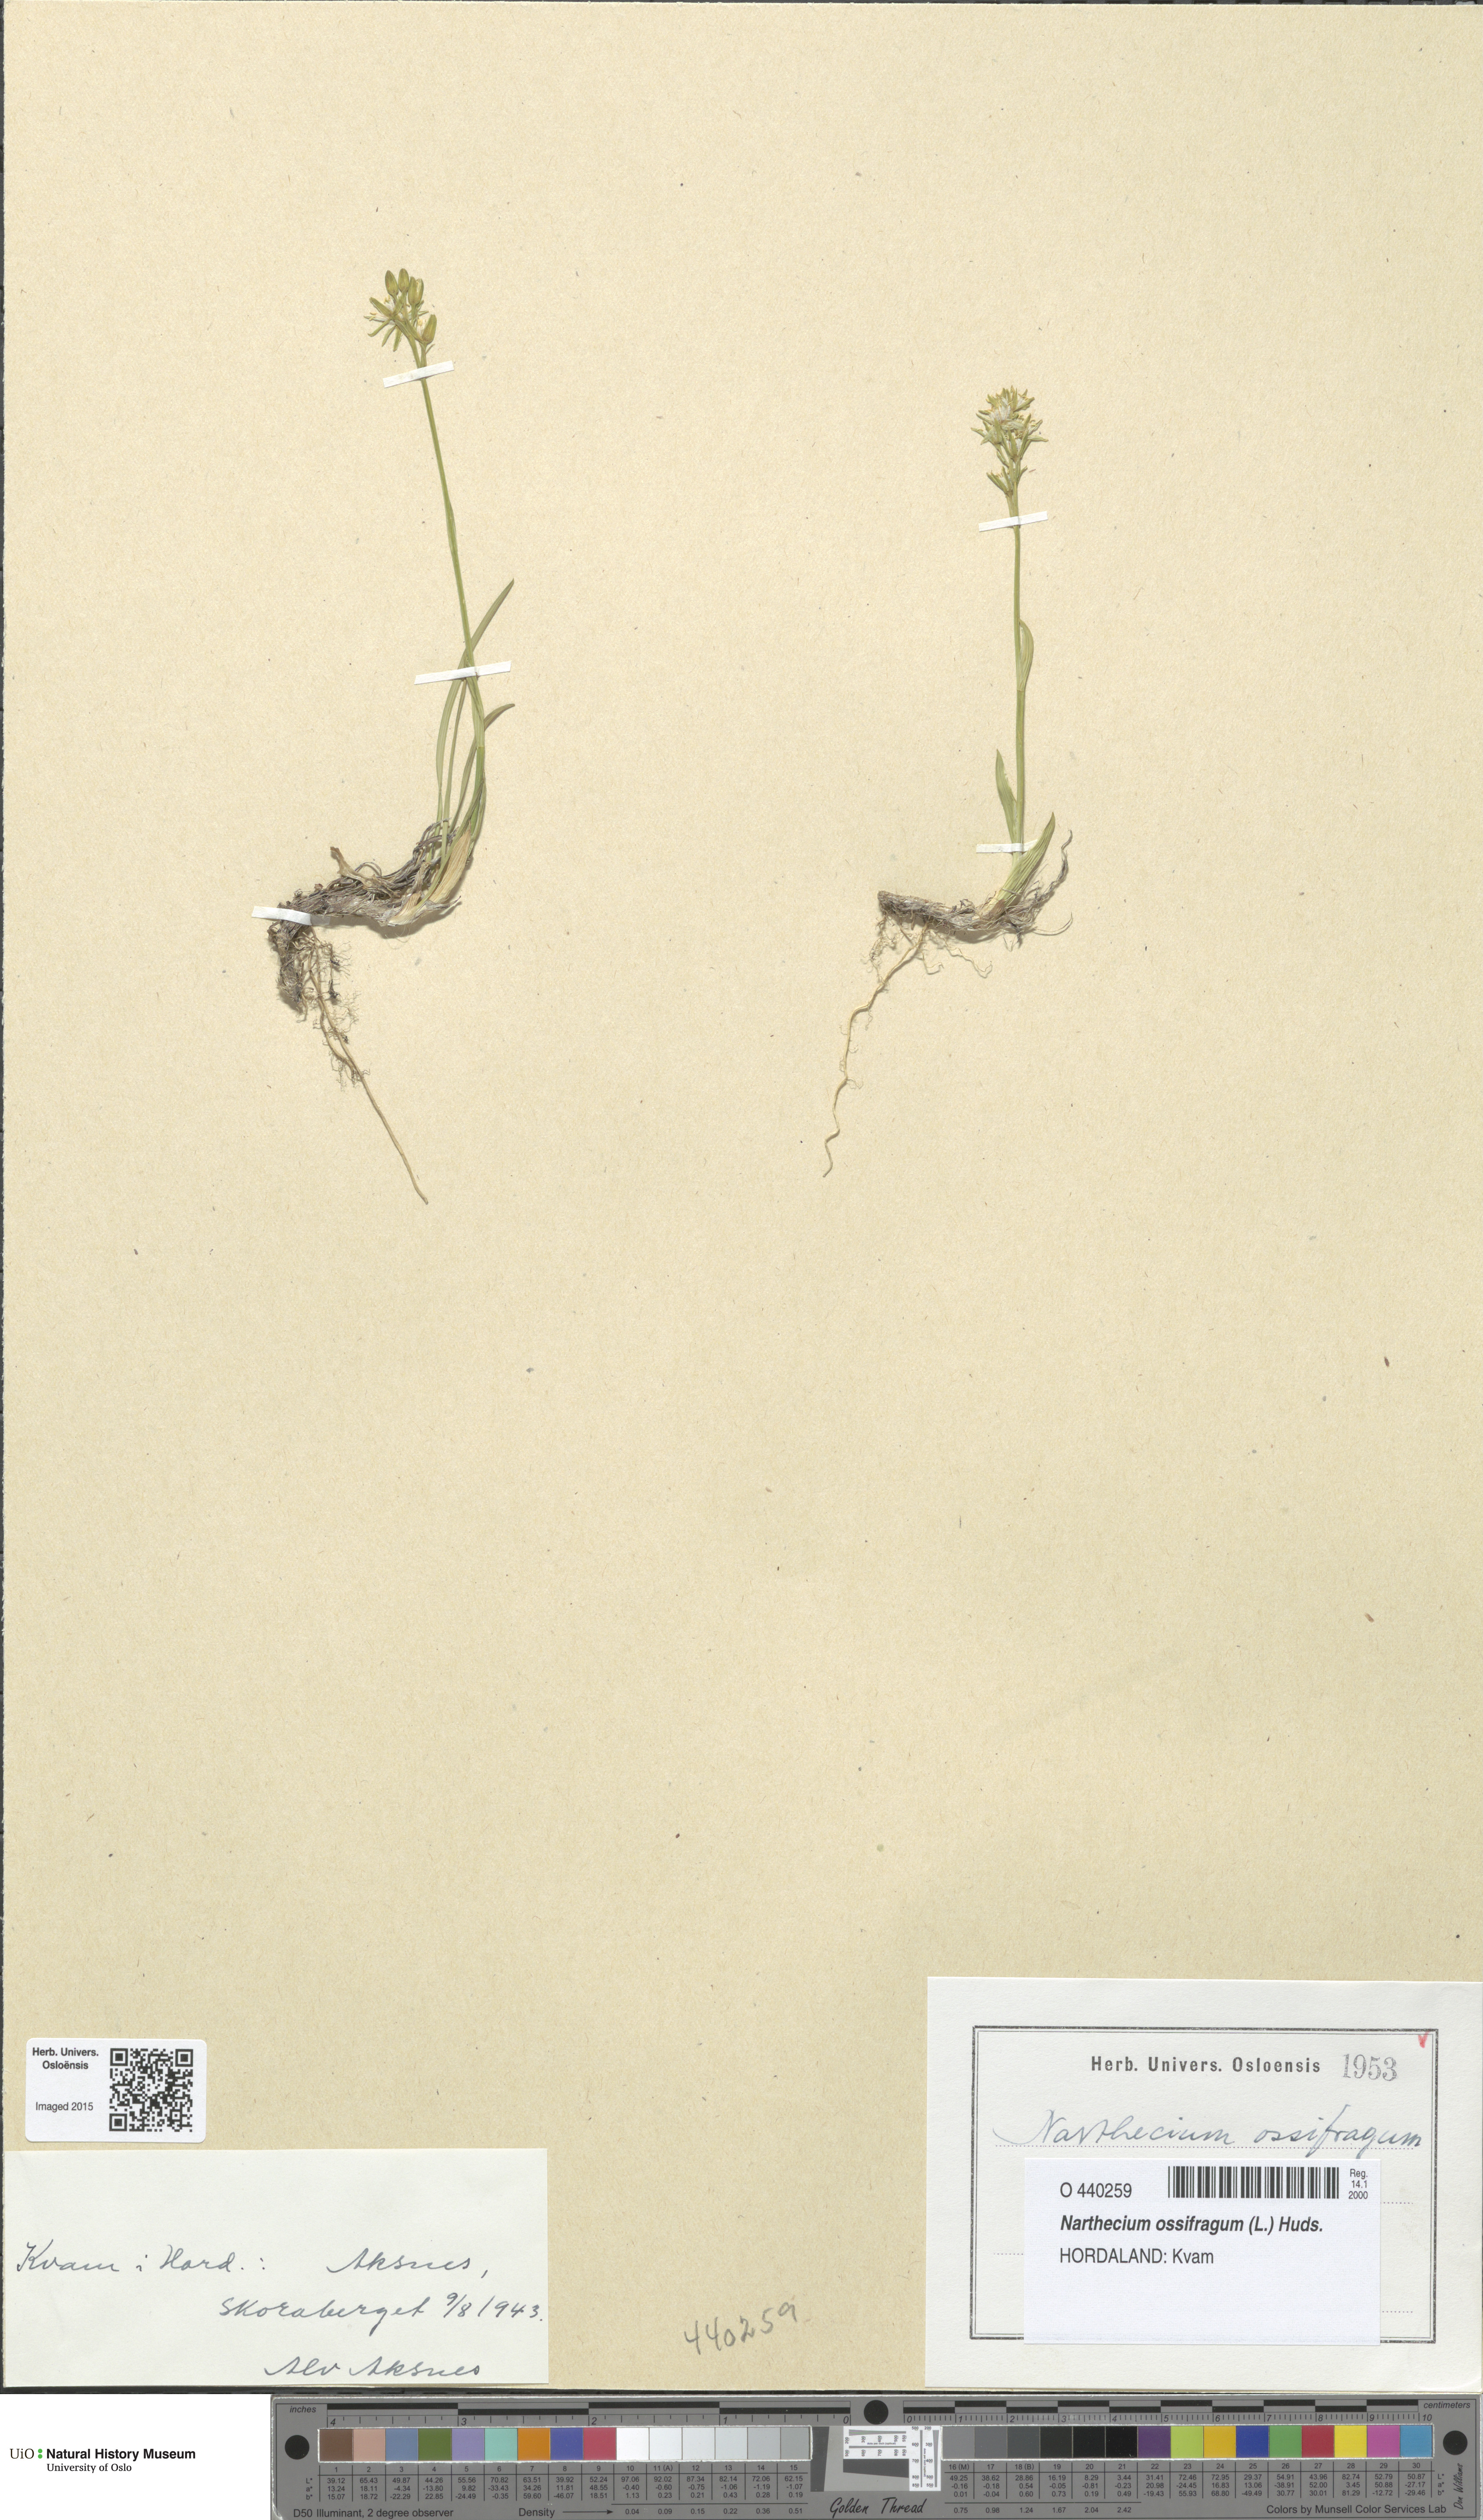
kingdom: Plantae
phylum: Tracheophyta
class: Liliopsida
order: Dioscoreales
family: Nartheciaceae
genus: Narthecium
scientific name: Narthecium ossifragum
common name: Bog asphodel
